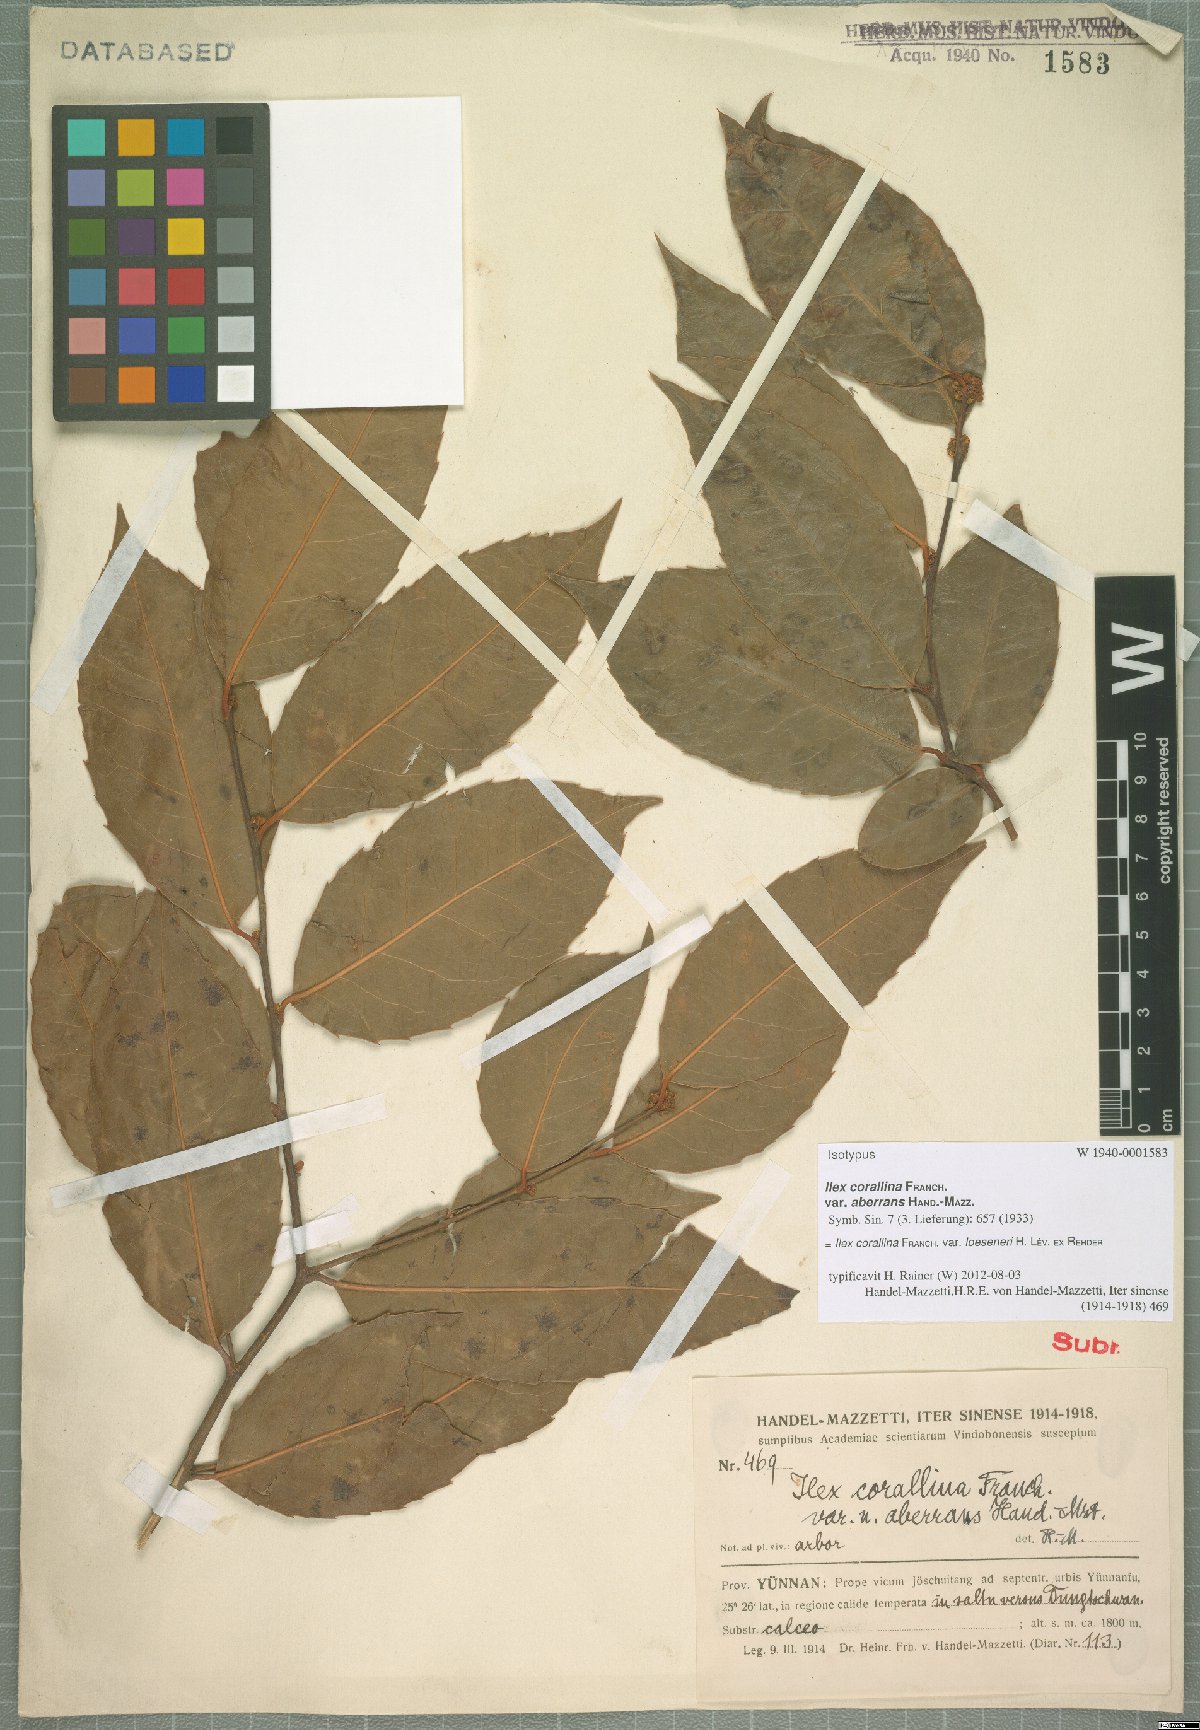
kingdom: Plantae
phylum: Tracheophyta
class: Magnoliopsida
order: Aquifoliales
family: Aquifoliaceae
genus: Ilex
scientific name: Ilex corallina
